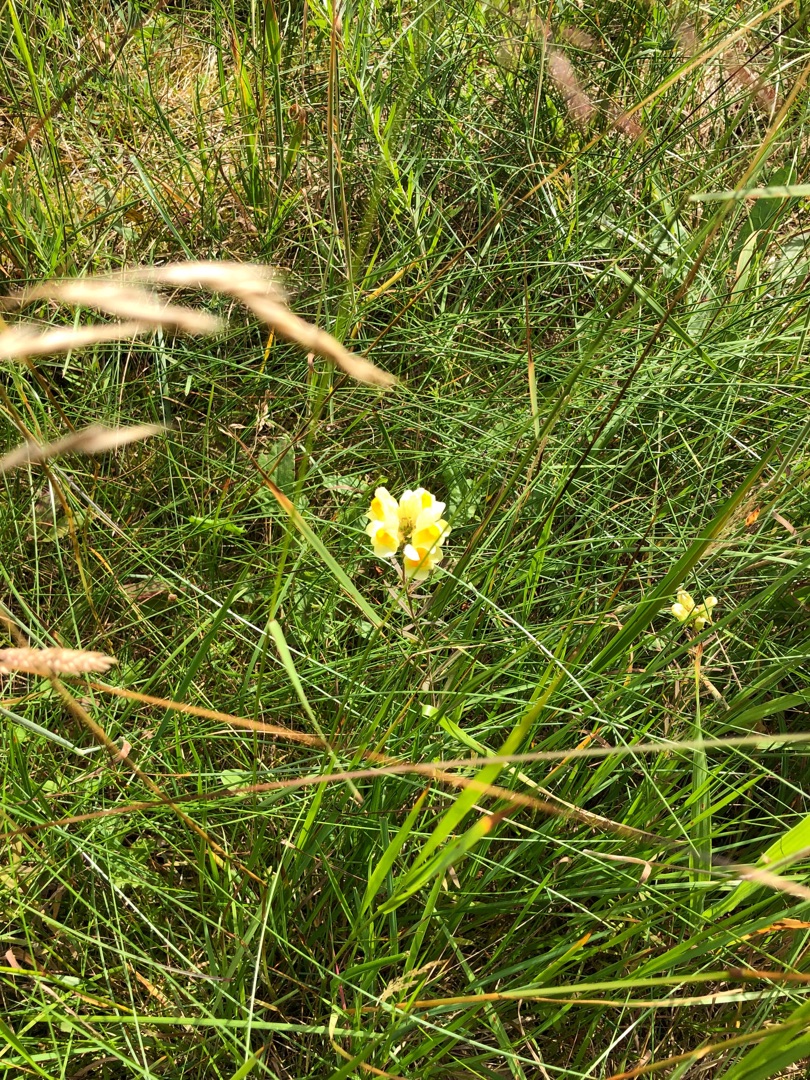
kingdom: Plantae
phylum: Tracheophyta
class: Magnoliopsida
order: Lamiales
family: Plantaginaceae
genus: Linaria
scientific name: Linaria vulgaris
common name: Almindelig torskemund
